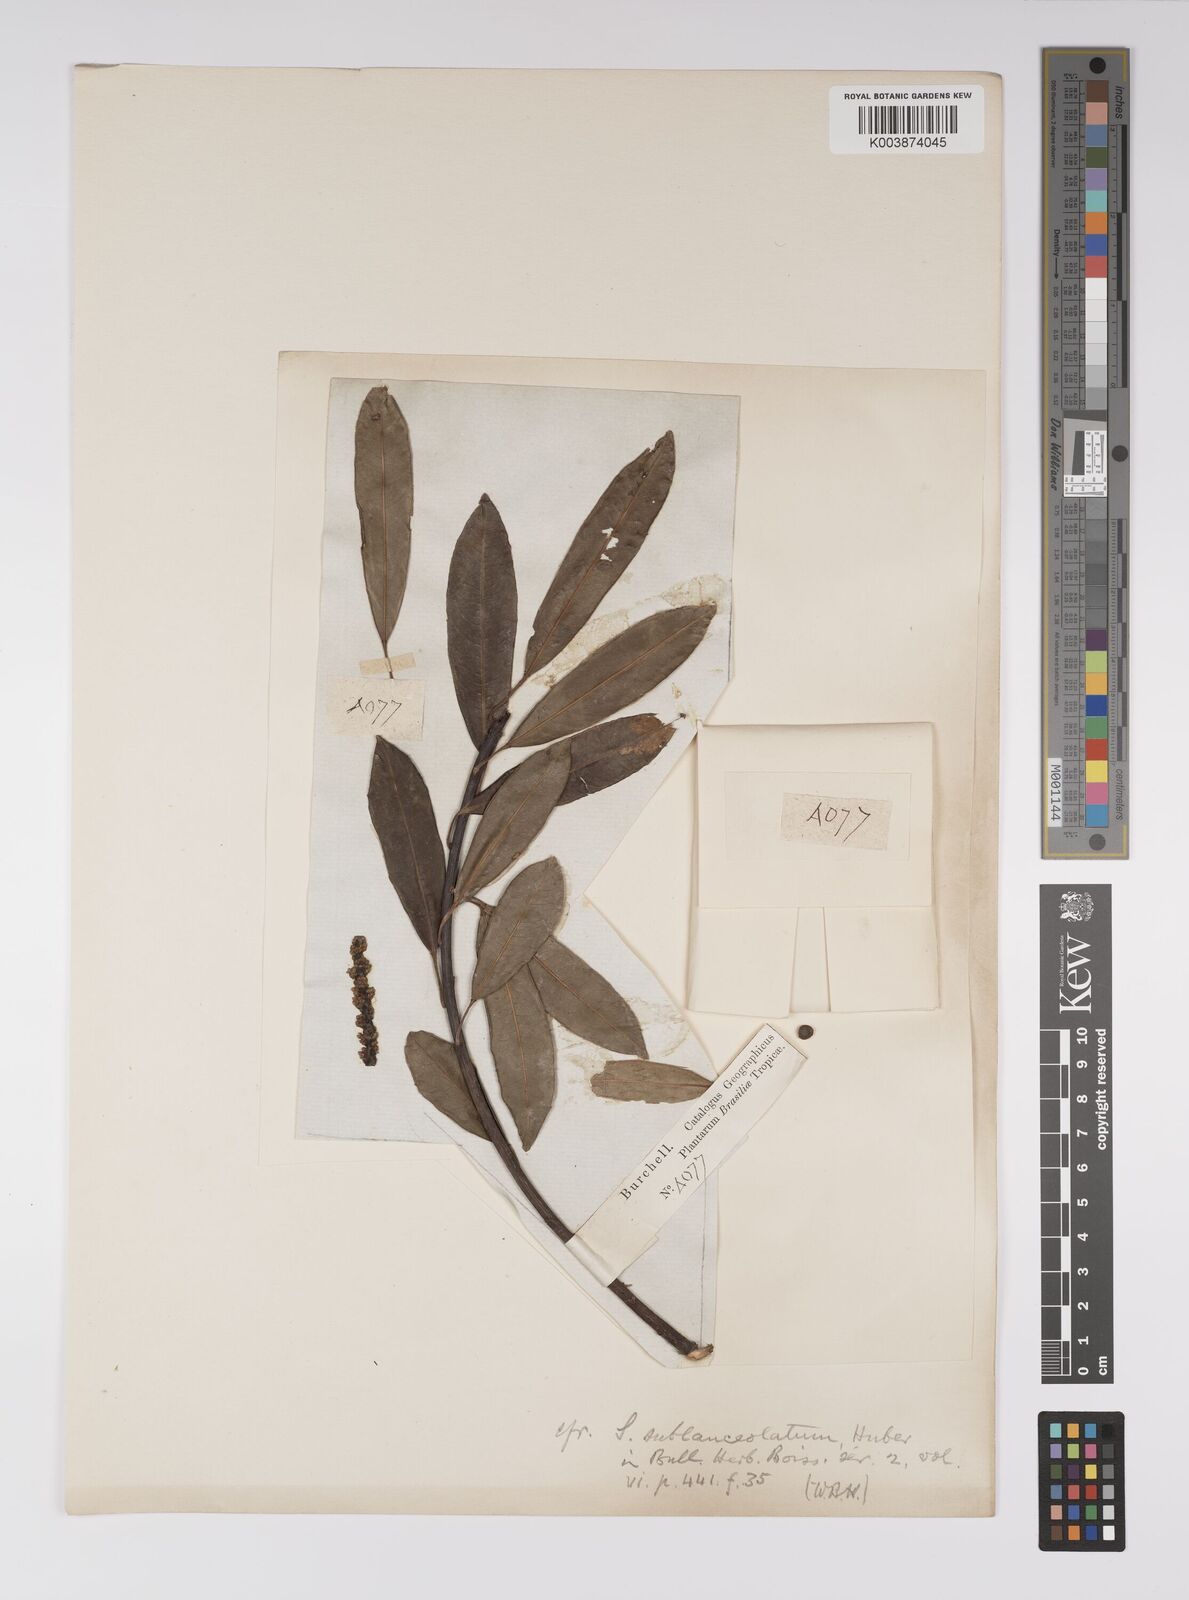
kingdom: Plantae
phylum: Tracheophyta
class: Magnoliopsida
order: Malpighiales
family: Euphorbiaceae
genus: Sapium
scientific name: Sapium sellowianum
